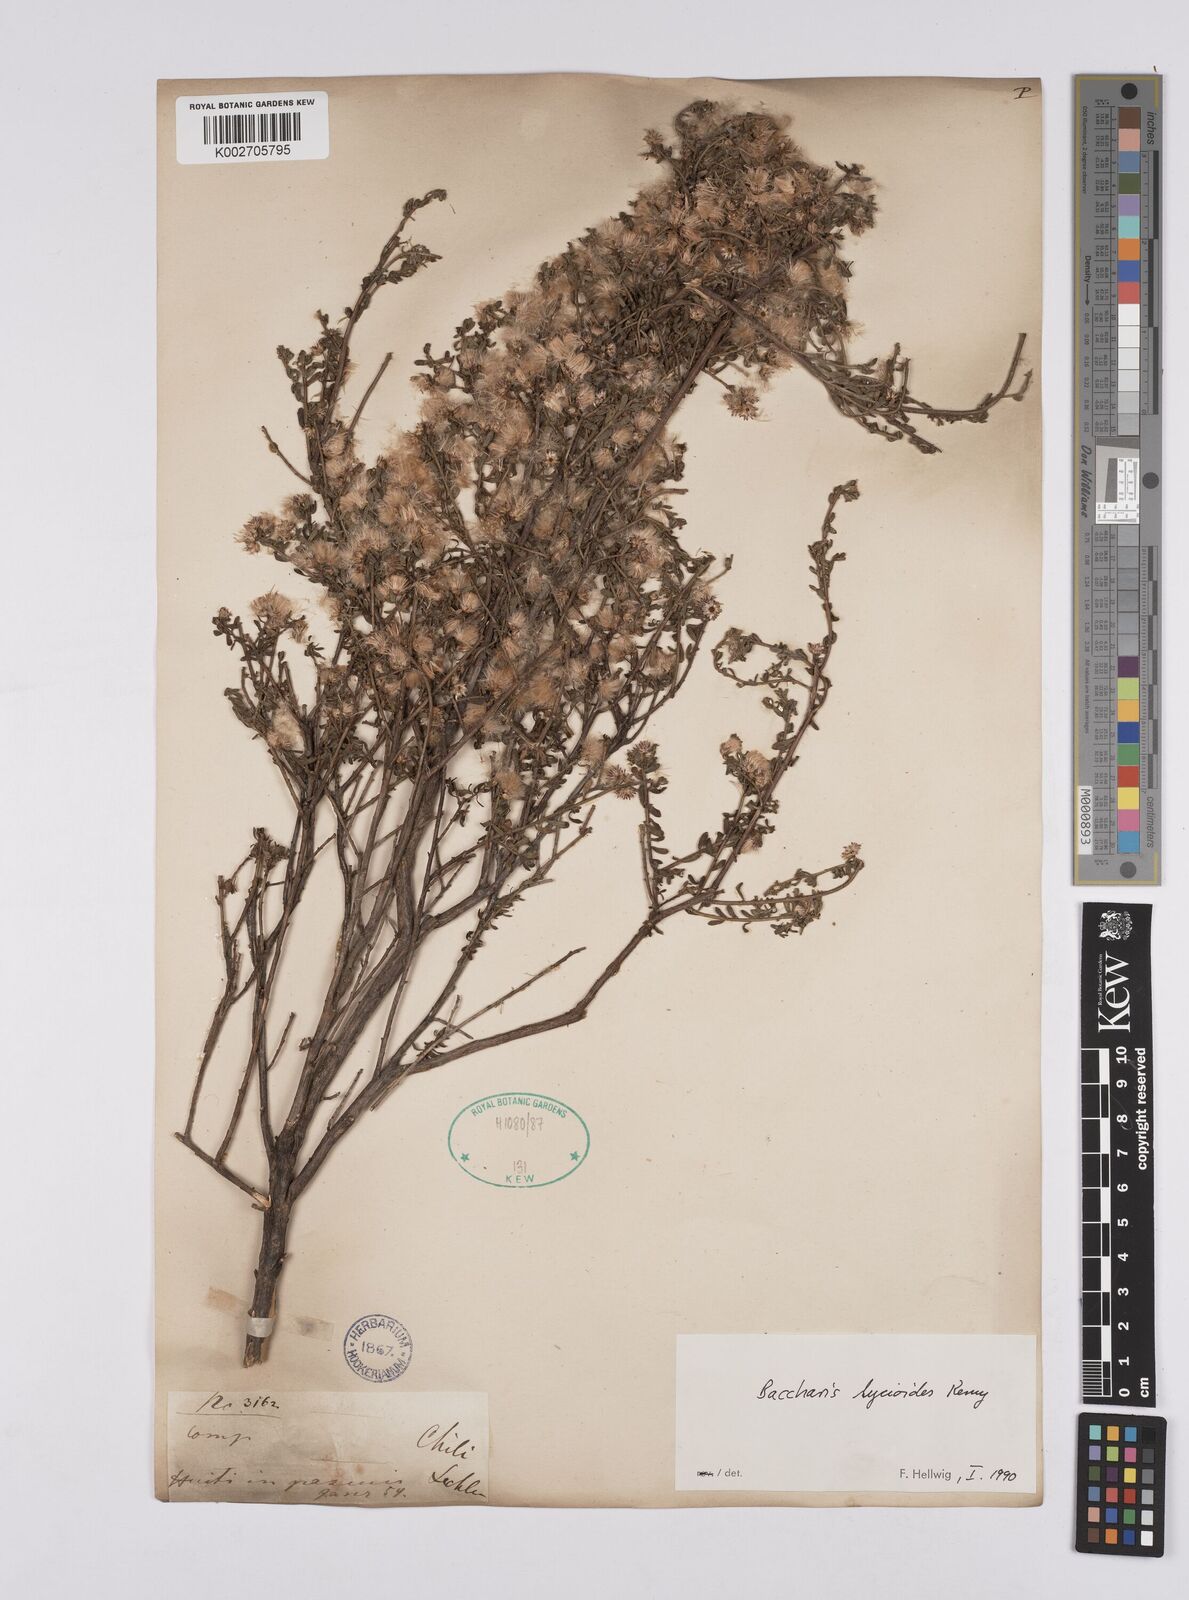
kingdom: Plantae
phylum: Tracheophyta
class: Magnoliopsida
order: Asterales
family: Asteraceae
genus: Baccharis
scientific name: Baccharis lycioides
